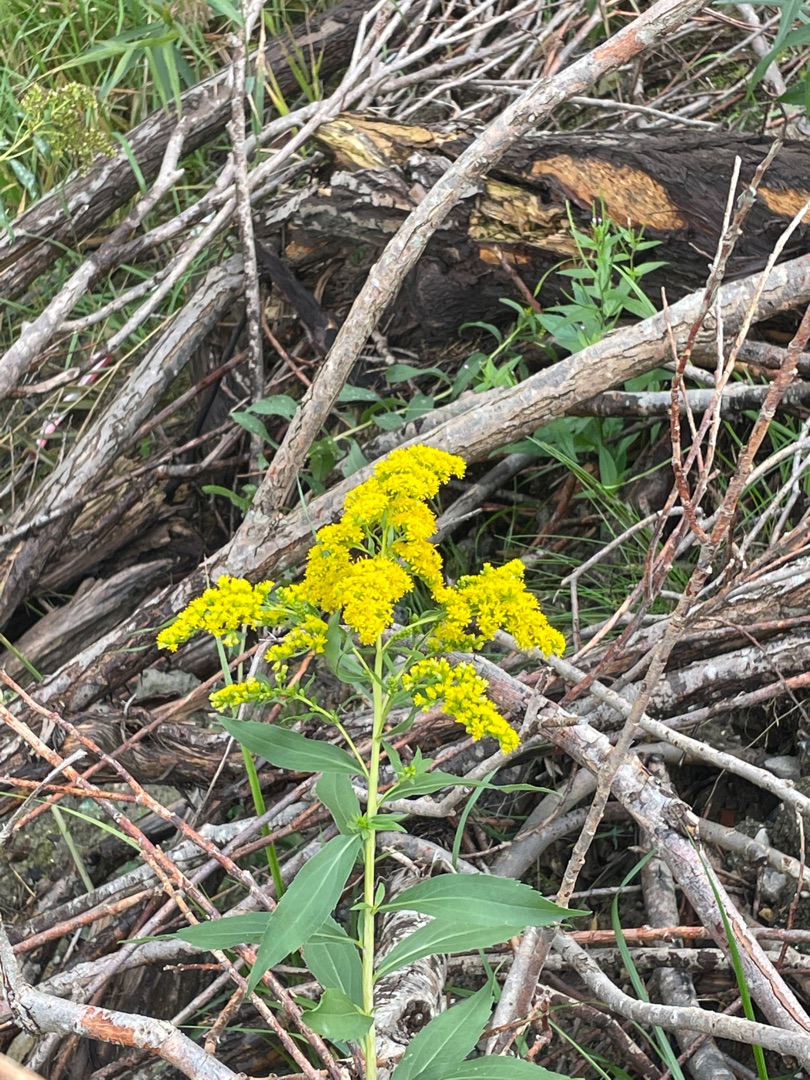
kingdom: Plantae
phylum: Tracheophyta
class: Magnoliopsida
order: Asterales
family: Asteraceae
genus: Solidago
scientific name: Solidago gigantea
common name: Sildig gyldenris
